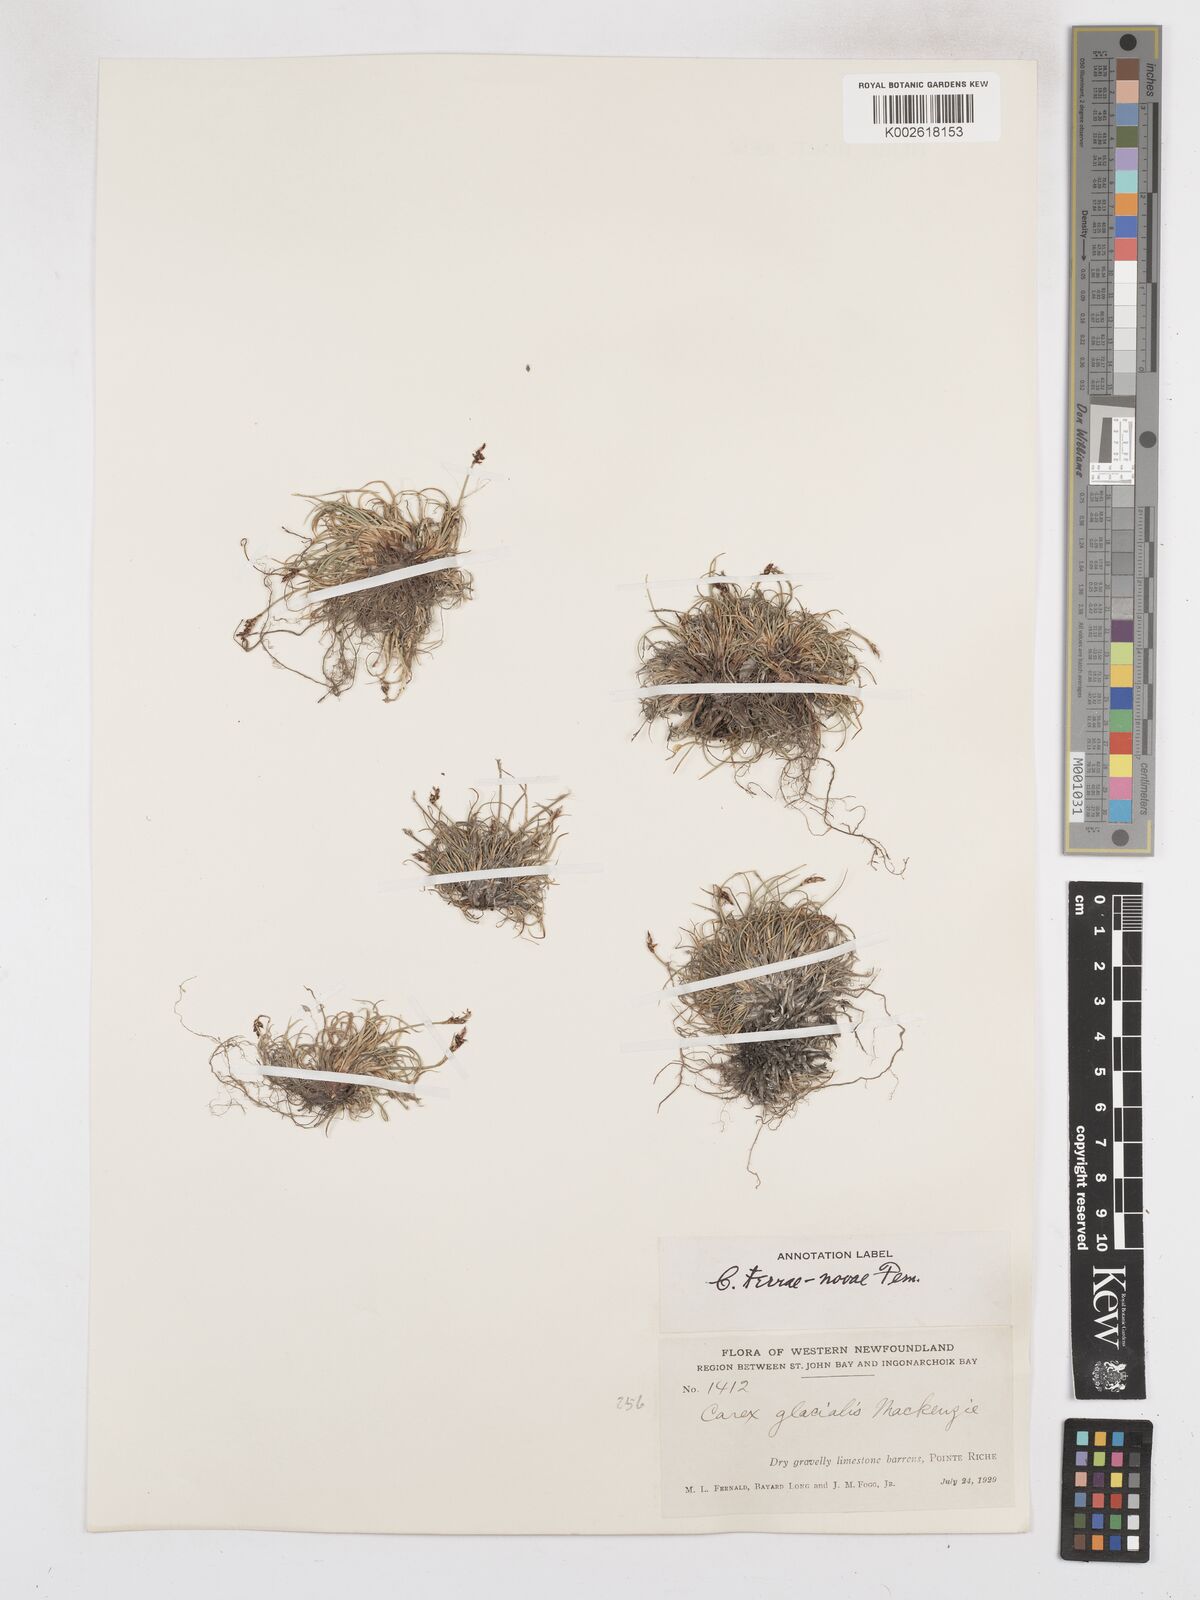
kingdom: Plantae
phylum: Tracheophyta
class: Liliopsida
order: Poales
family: Cyperaceae
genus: Carex
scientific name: Carex glacialis
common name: Newfoundland sedge
